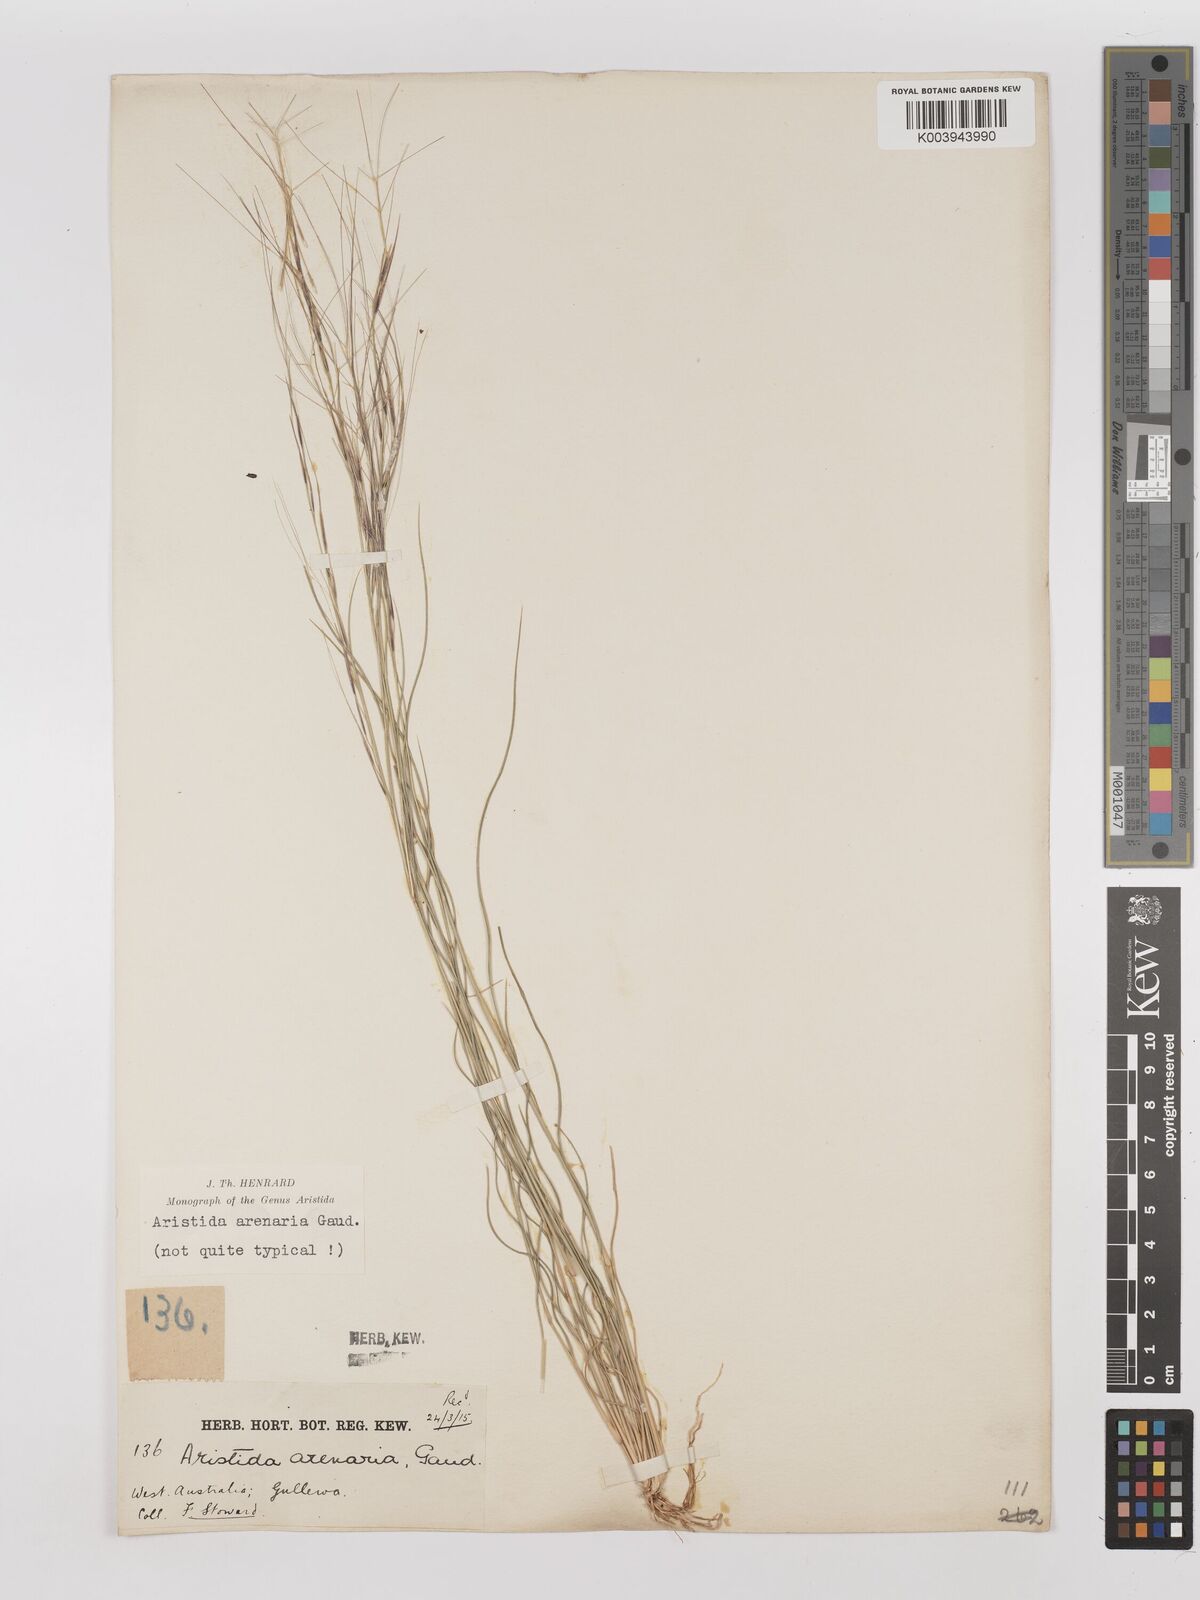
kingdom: Plantae
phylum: Tracheophyta
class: Liliopsida
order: Poales
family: Poaceae
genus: Aristida
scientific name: Aristida contorta
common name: Bunch kerosene grass
